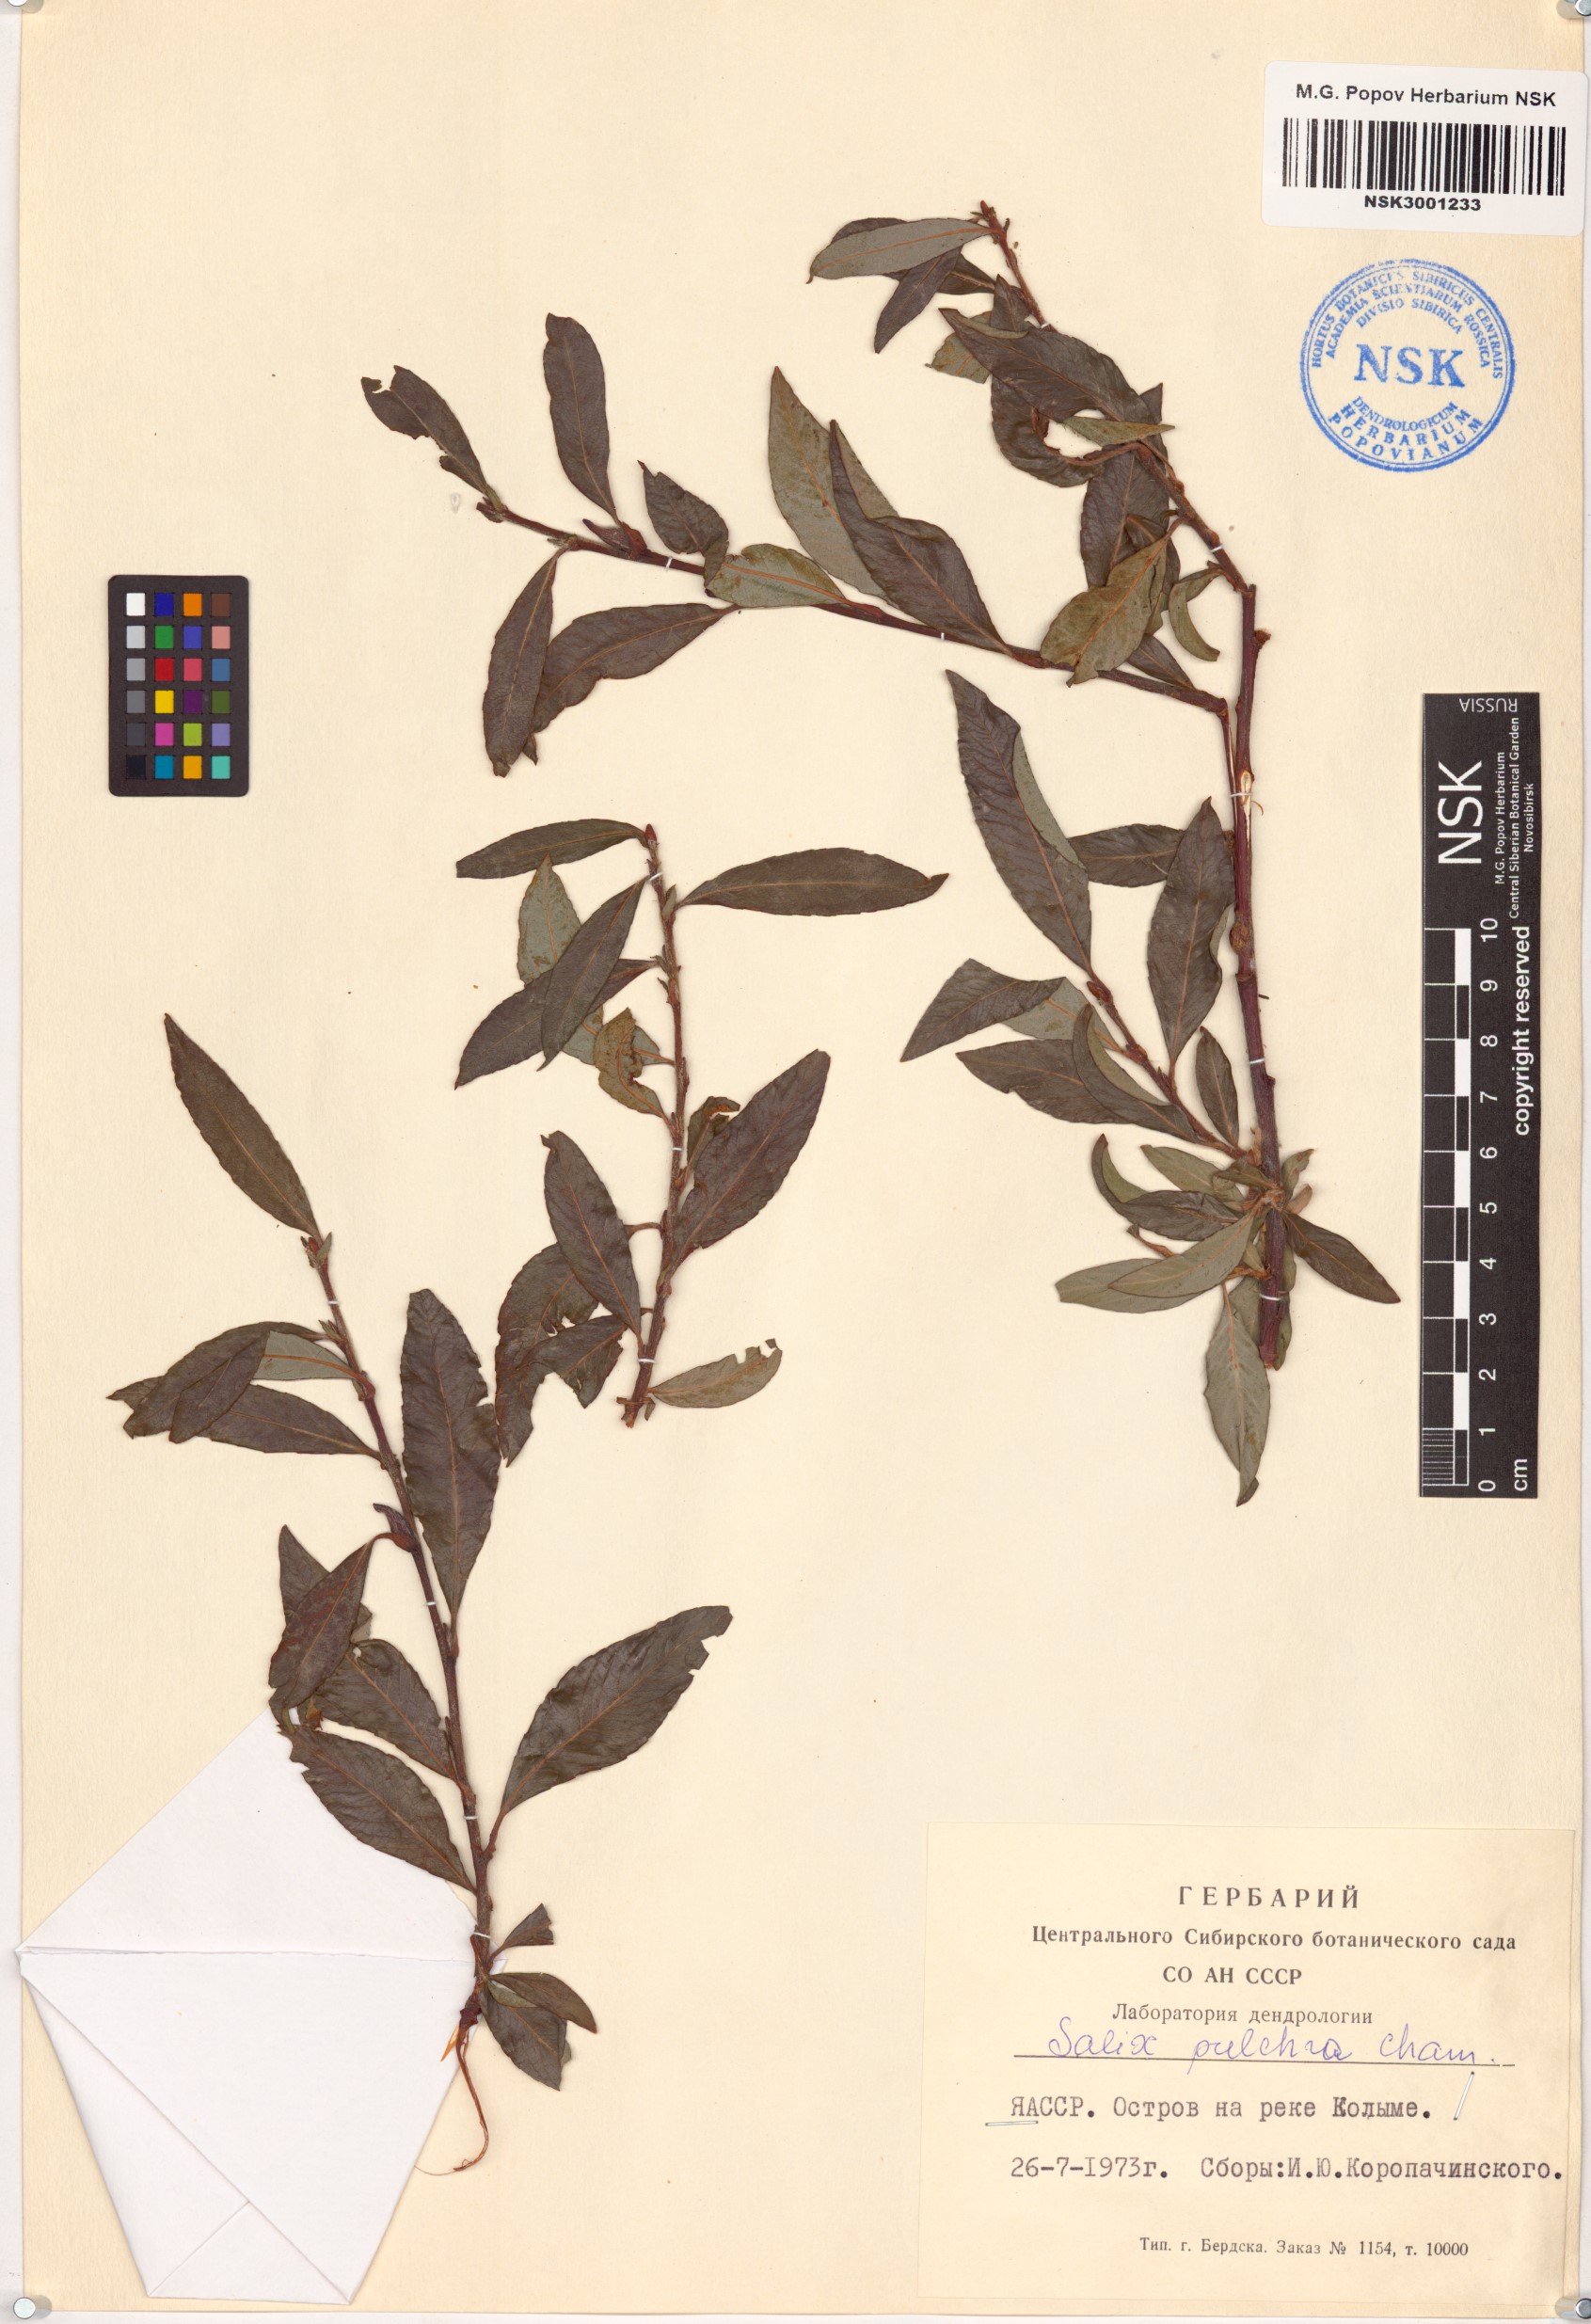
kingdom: Plantae
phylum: Tracheophyta
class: Magnoliopsida
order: Malpighiales
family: Salicaceae
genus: Salix
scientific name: Salix pulchra
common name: Diamond-leaved willow
